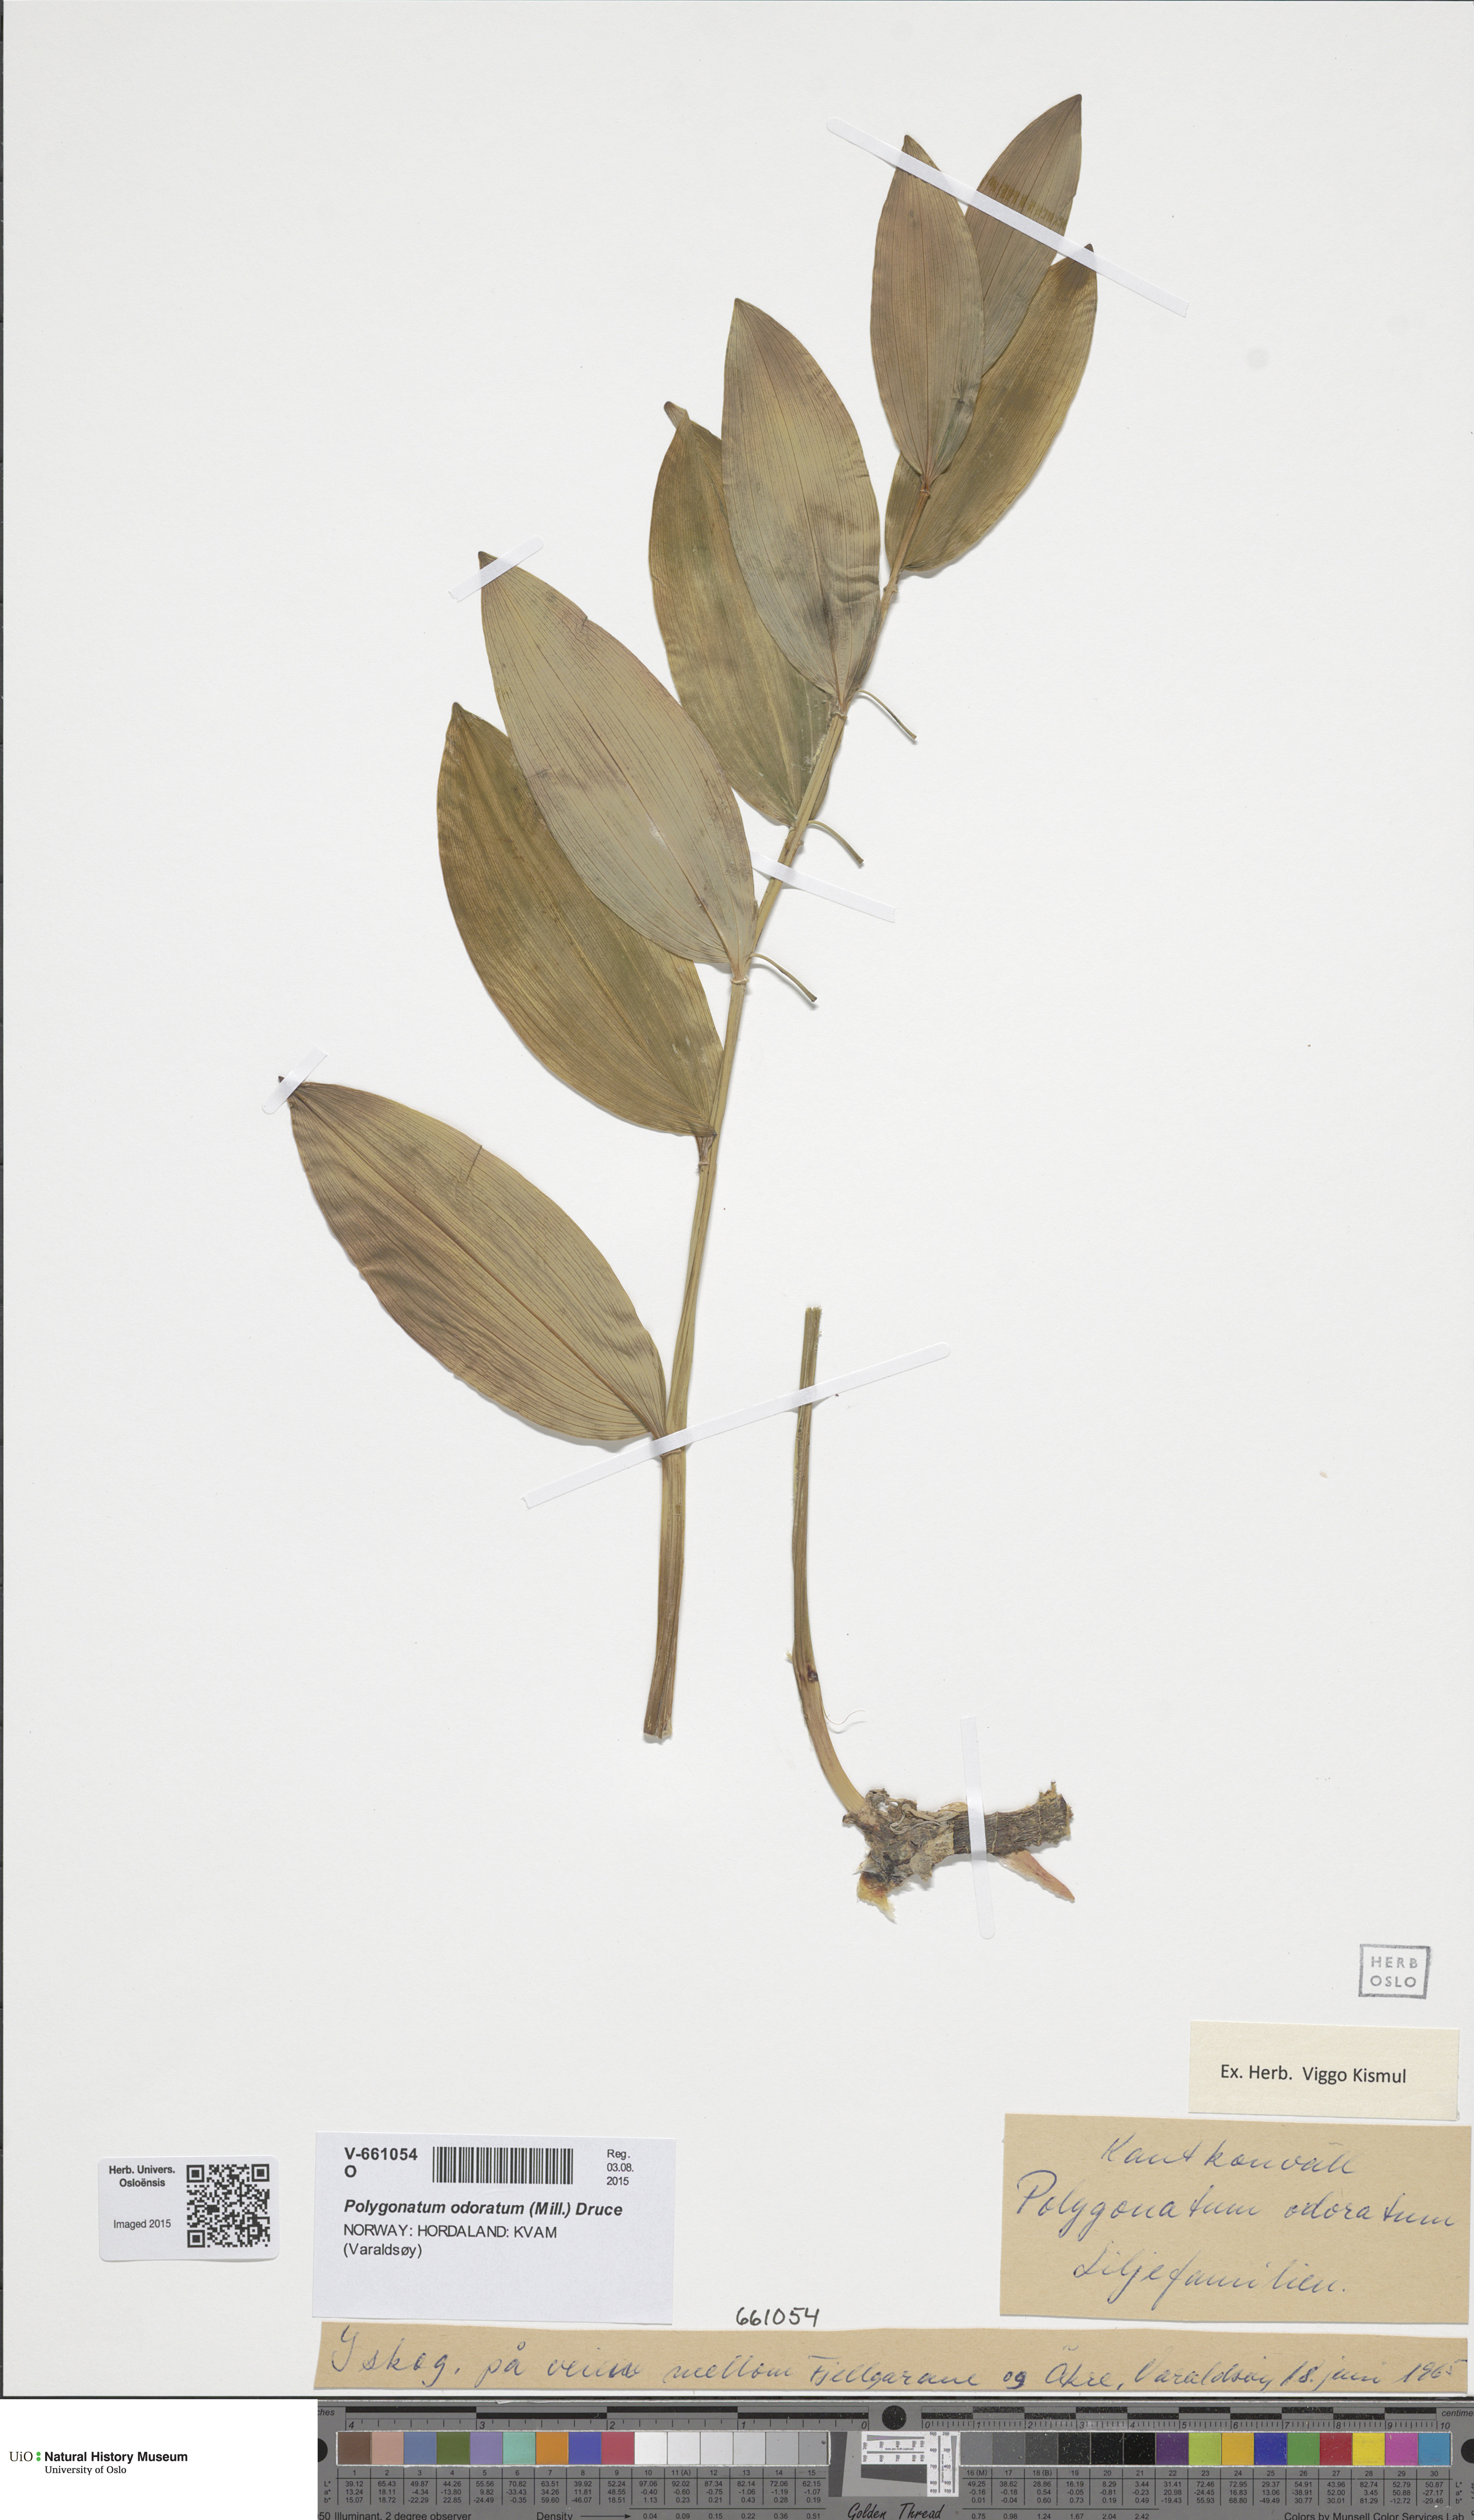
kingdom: Plantae
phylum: Tracheophyta
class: Liliopsida
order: Asparagales
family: Asparagaceae
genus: Polygonatum
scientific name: Polygonatum odoratum
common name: Angular solomon's-seal
